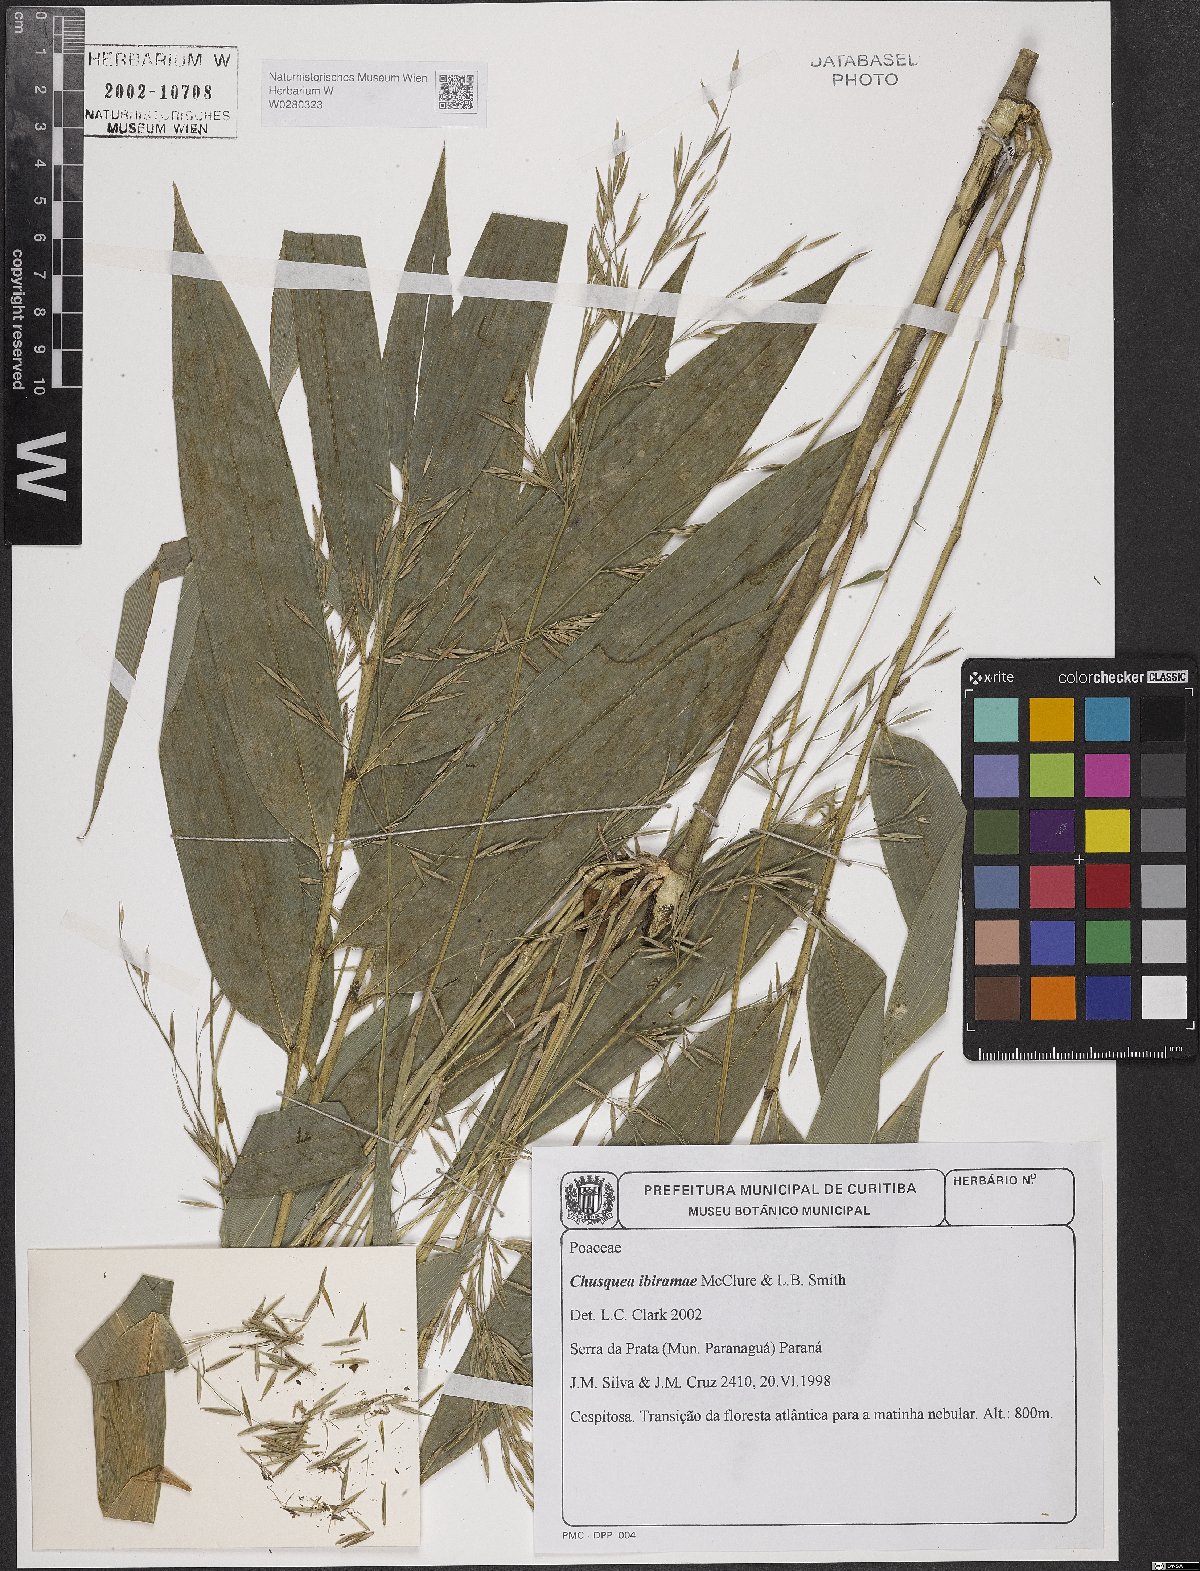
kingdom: Plantae
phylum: Tracheophyta
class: Liliopsida
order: Poales
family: Poaceae
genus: Chusquea
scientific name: Chusquea ibiramae
